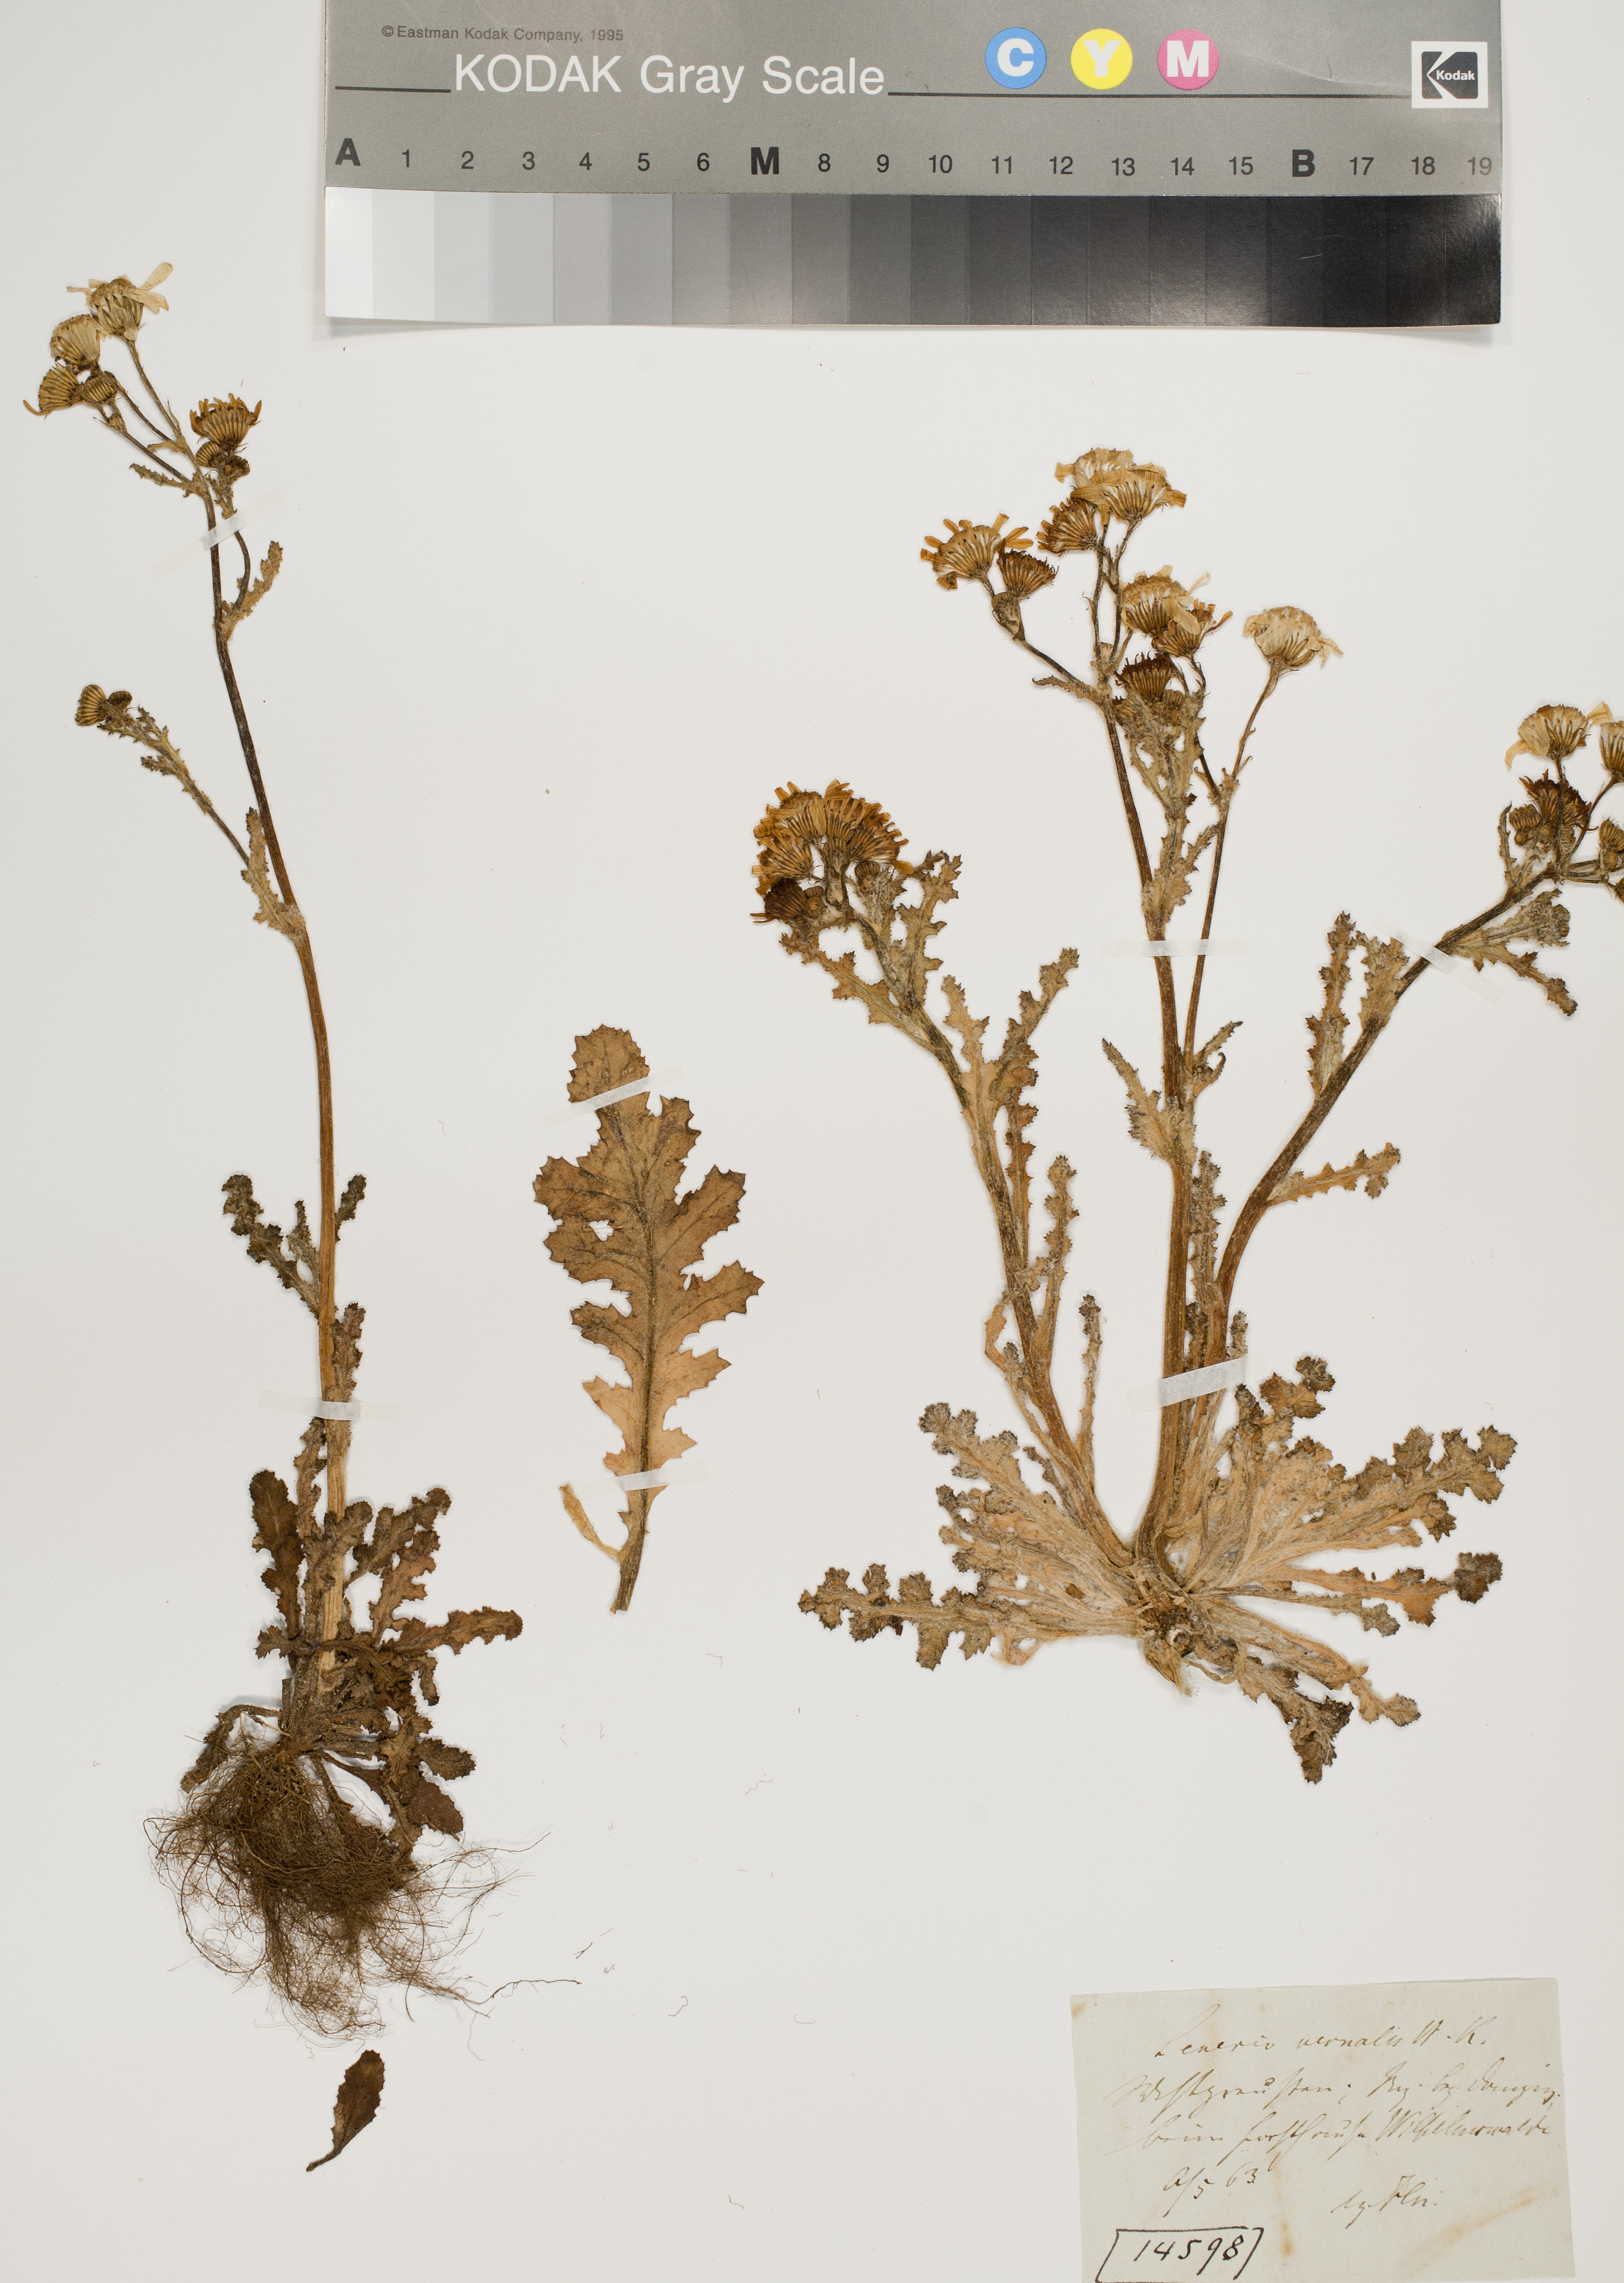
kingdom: Plantae
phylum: Tracheophyta
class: Magnoliopsida
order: Asterales
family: Asteraceae
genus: Senecio
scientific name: Senecio vernalis
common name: Eastern groundsel
